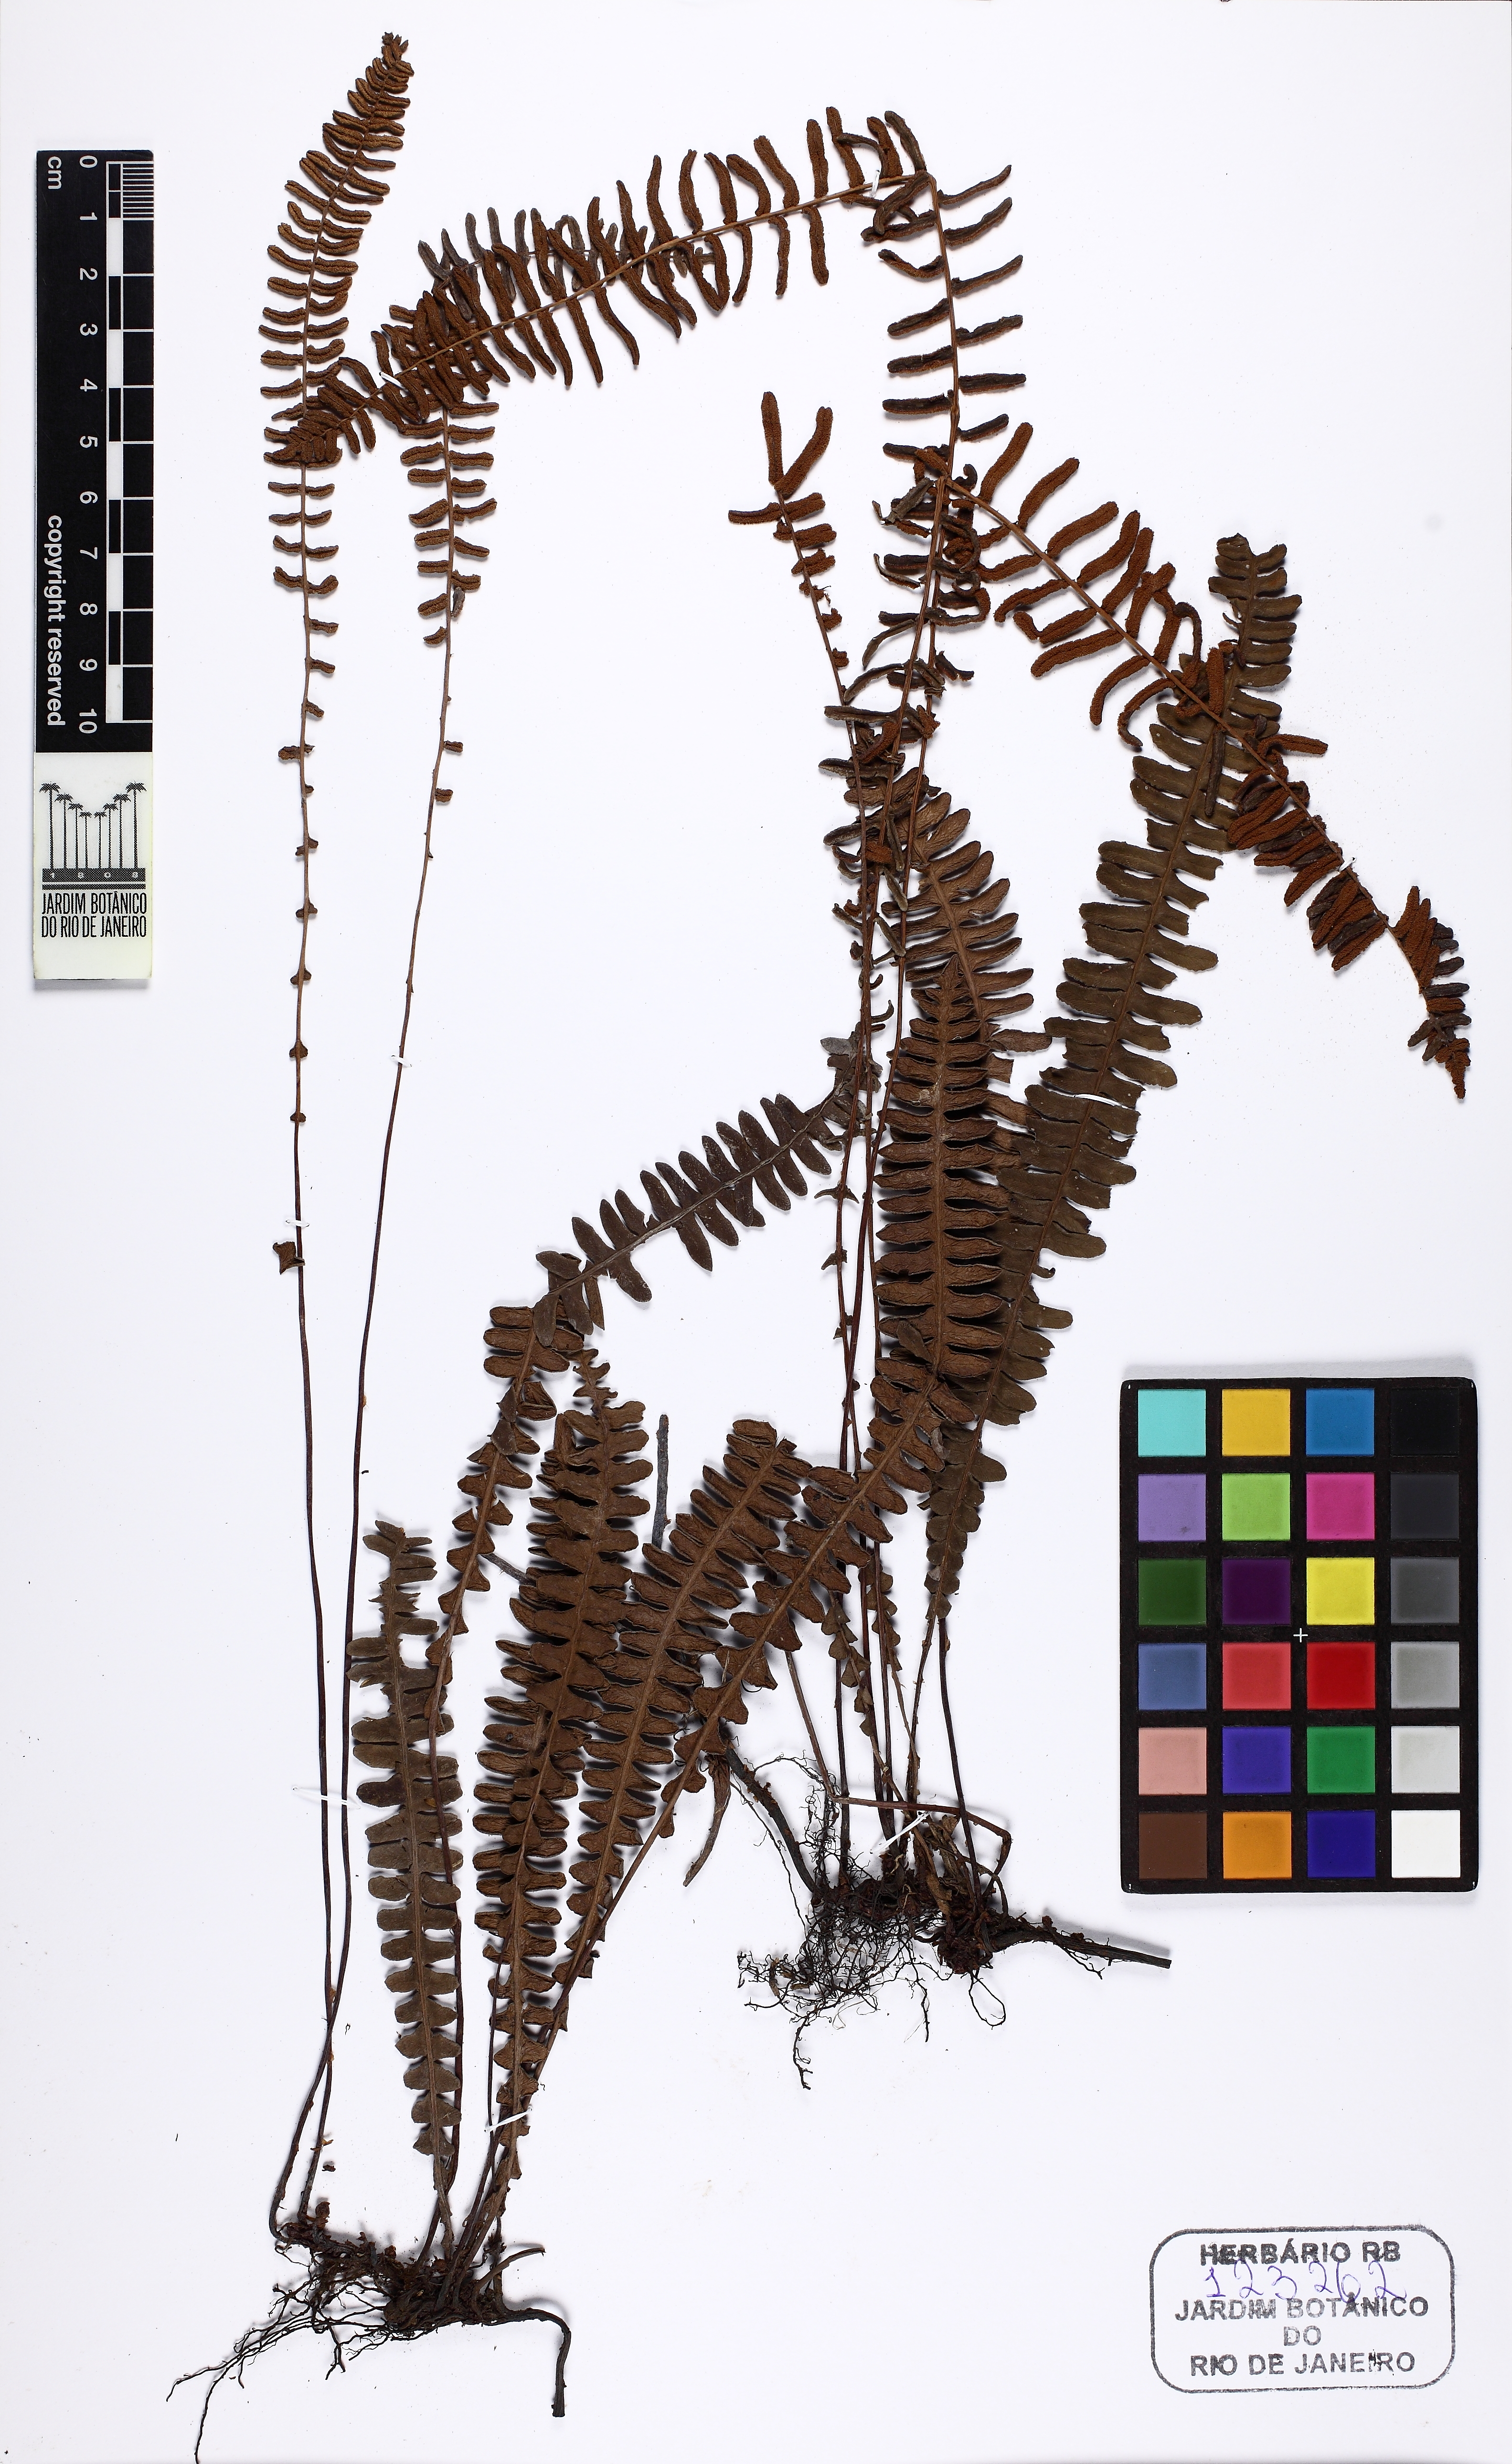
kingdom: Plantae
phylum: Tracheophyta
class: Polypodiopsida
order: Polypodiales
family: Blechnaceae
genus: Austroblechnum
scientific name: Austroblechnum penna-marina
